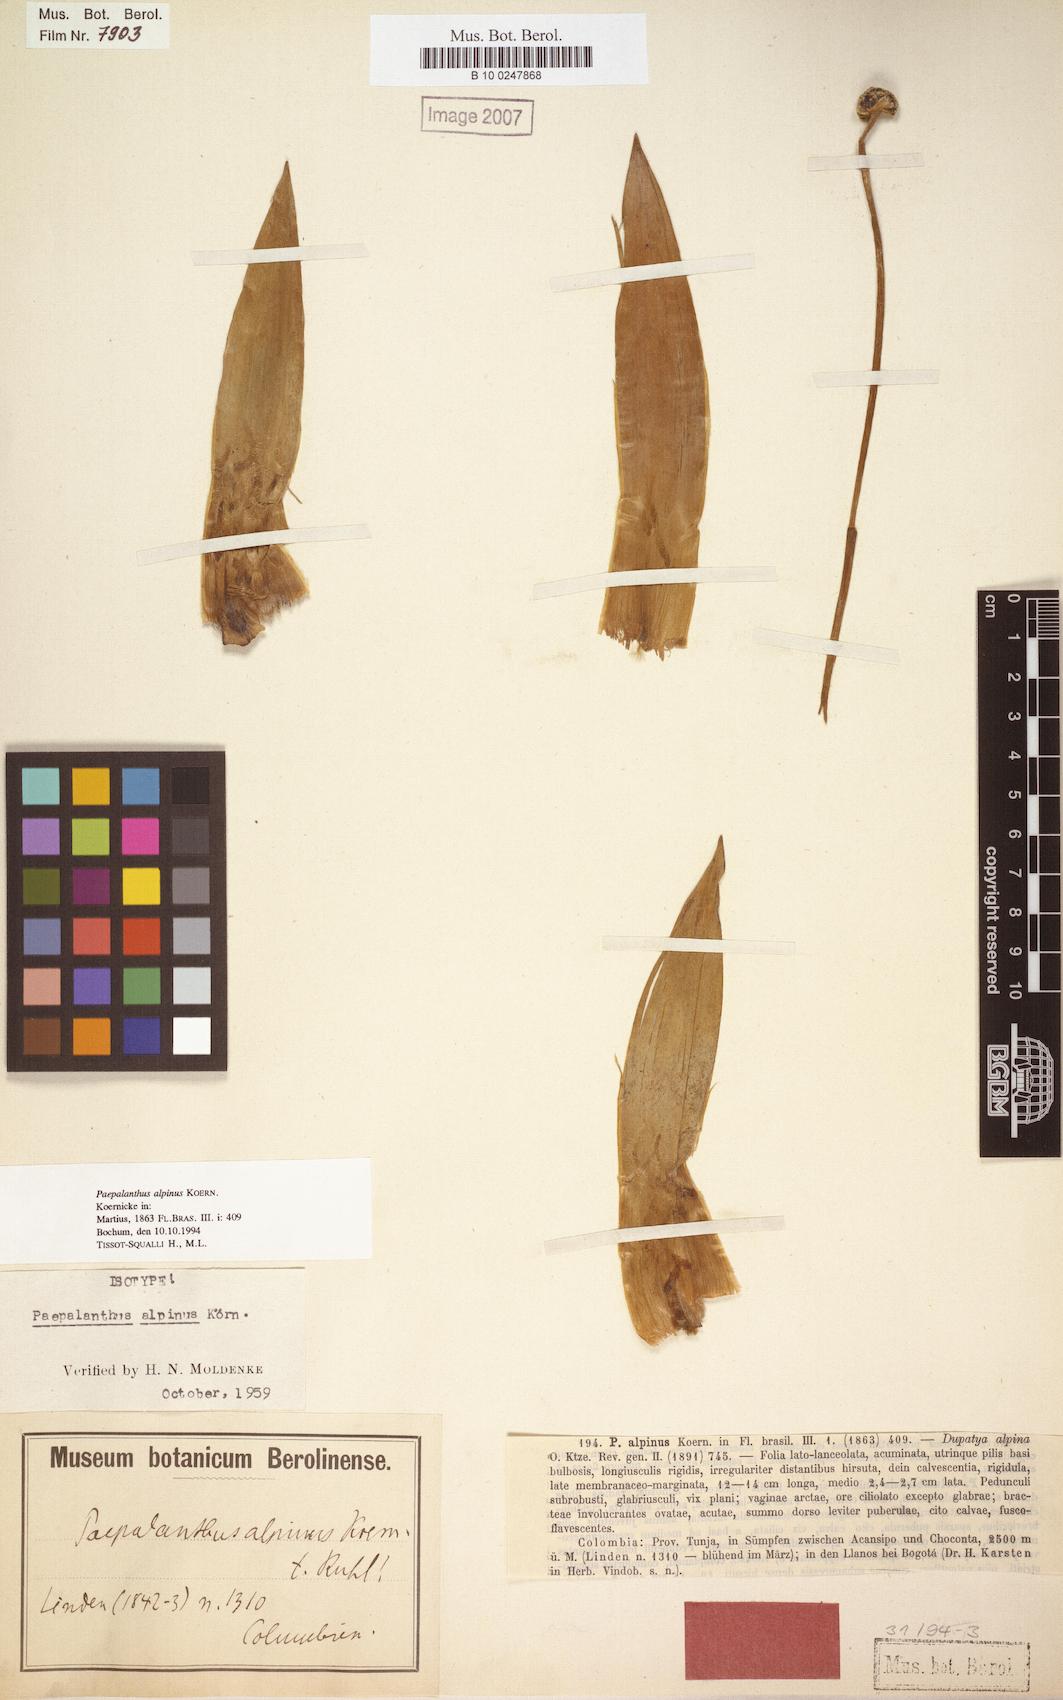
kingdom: Plantae
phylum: Tracheophyta
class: Liliopsida
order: Poales
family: Eriocaulaceae
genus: Paepalanthus
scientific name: Paepalanthus alpinus
